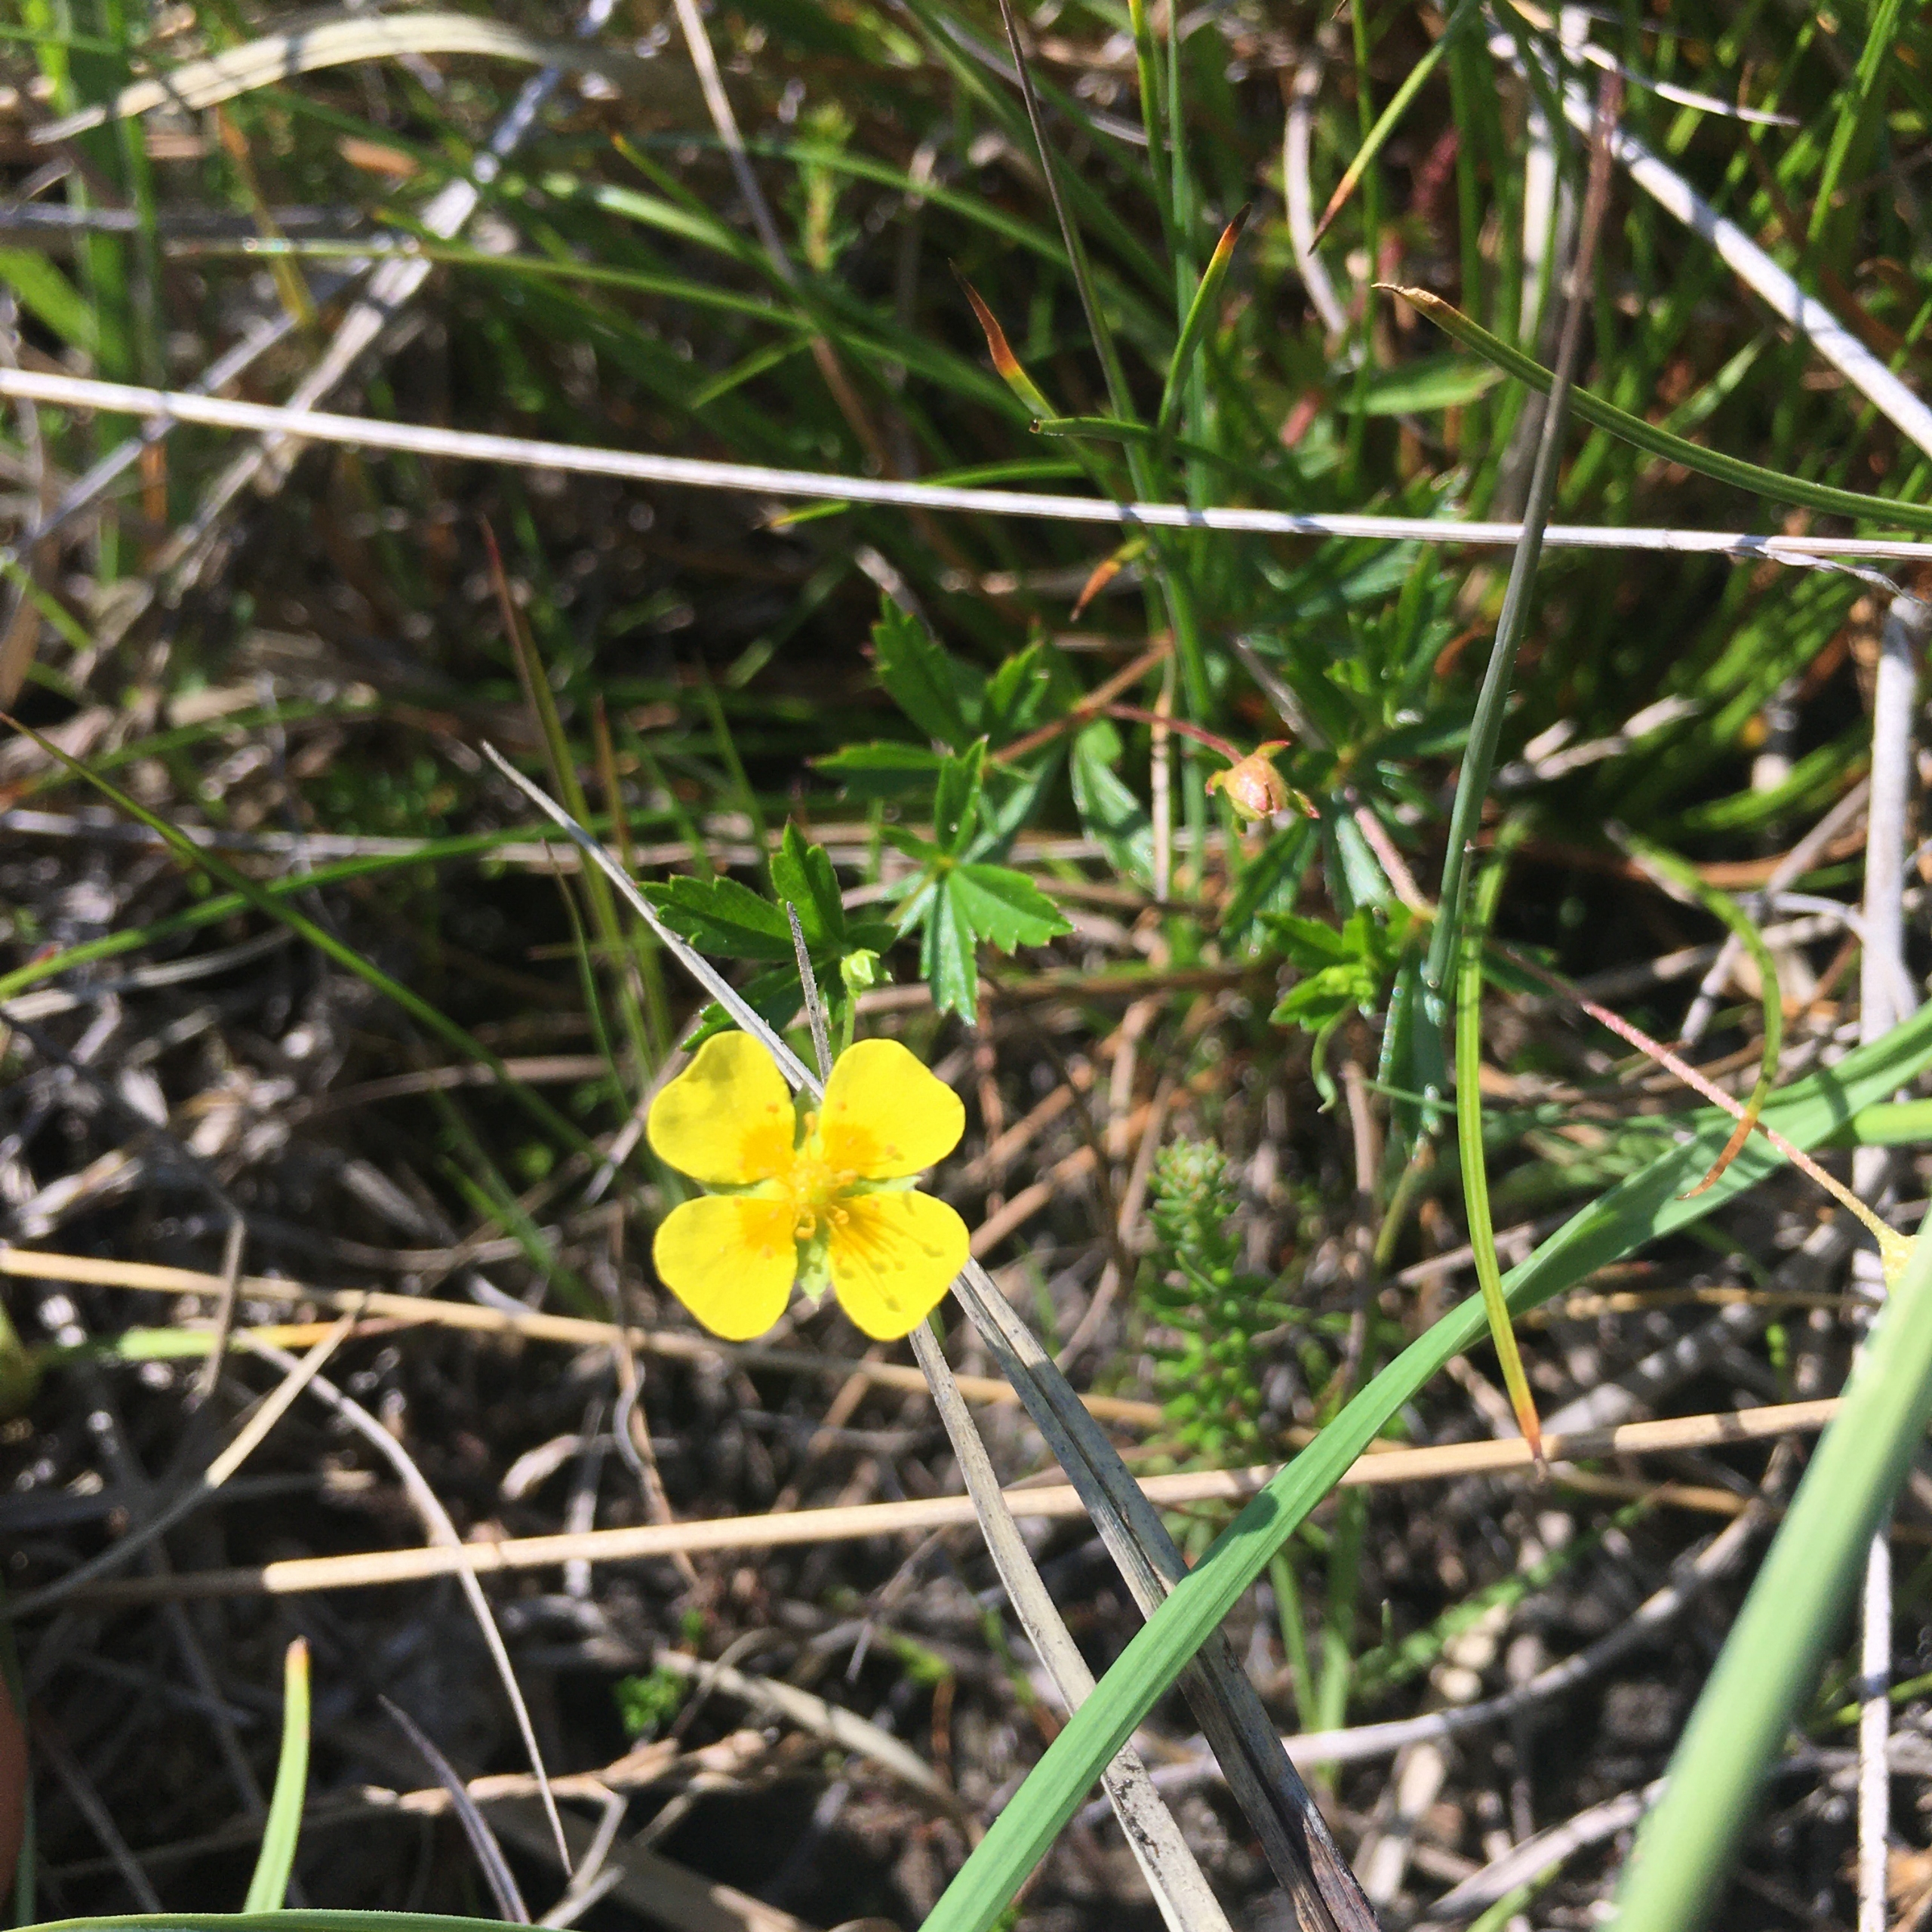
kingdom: Plantae
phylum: Tracheophyta
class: Magnoliopsida
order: Rosales
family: Rosaceae
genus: Potentilla
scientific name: Potentilla erecta
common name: Tormentil
